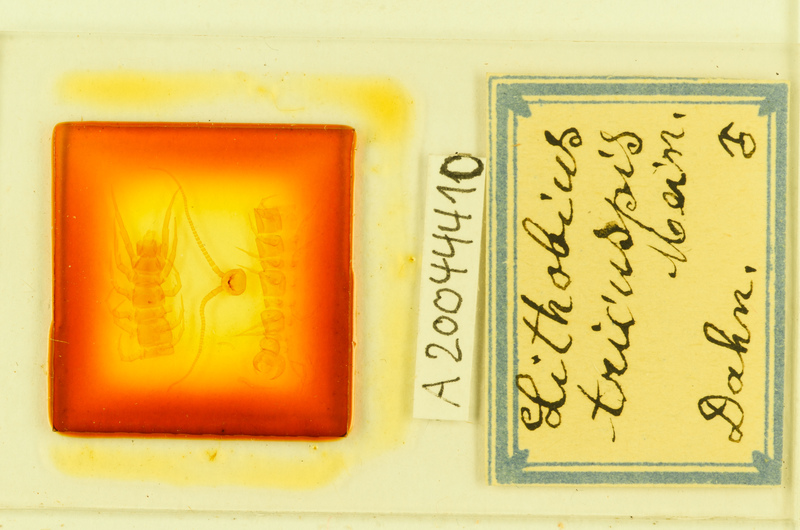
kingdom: Animalia
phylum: Arthropoda
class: Chilopoda
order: Lithobiomorpha
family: Lithobiidae
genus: Lithobius
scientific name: Lithobius tricuspis
